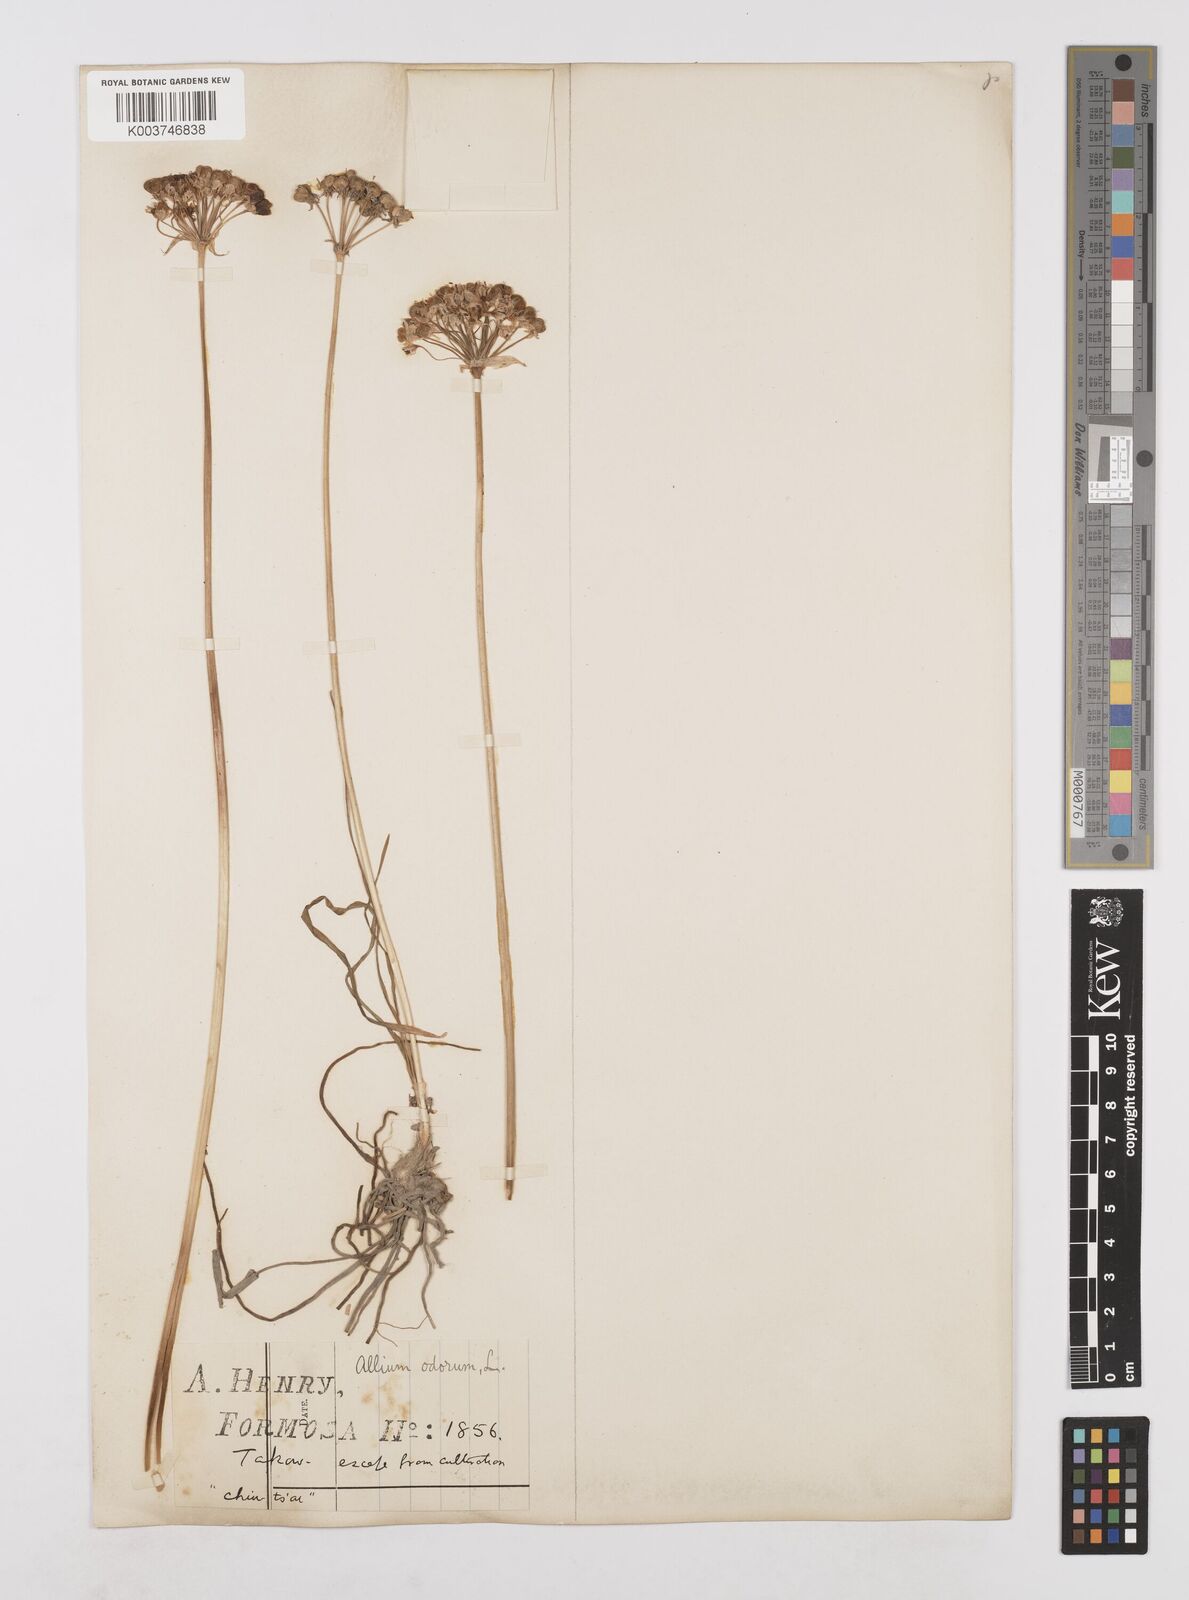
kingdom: Plantae
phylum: Tracheophyta
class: Liliopsida
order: Asparagales
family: Amaryllidaceae
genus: Allium
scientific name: Allium ramosum
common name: Fragrant garlic
